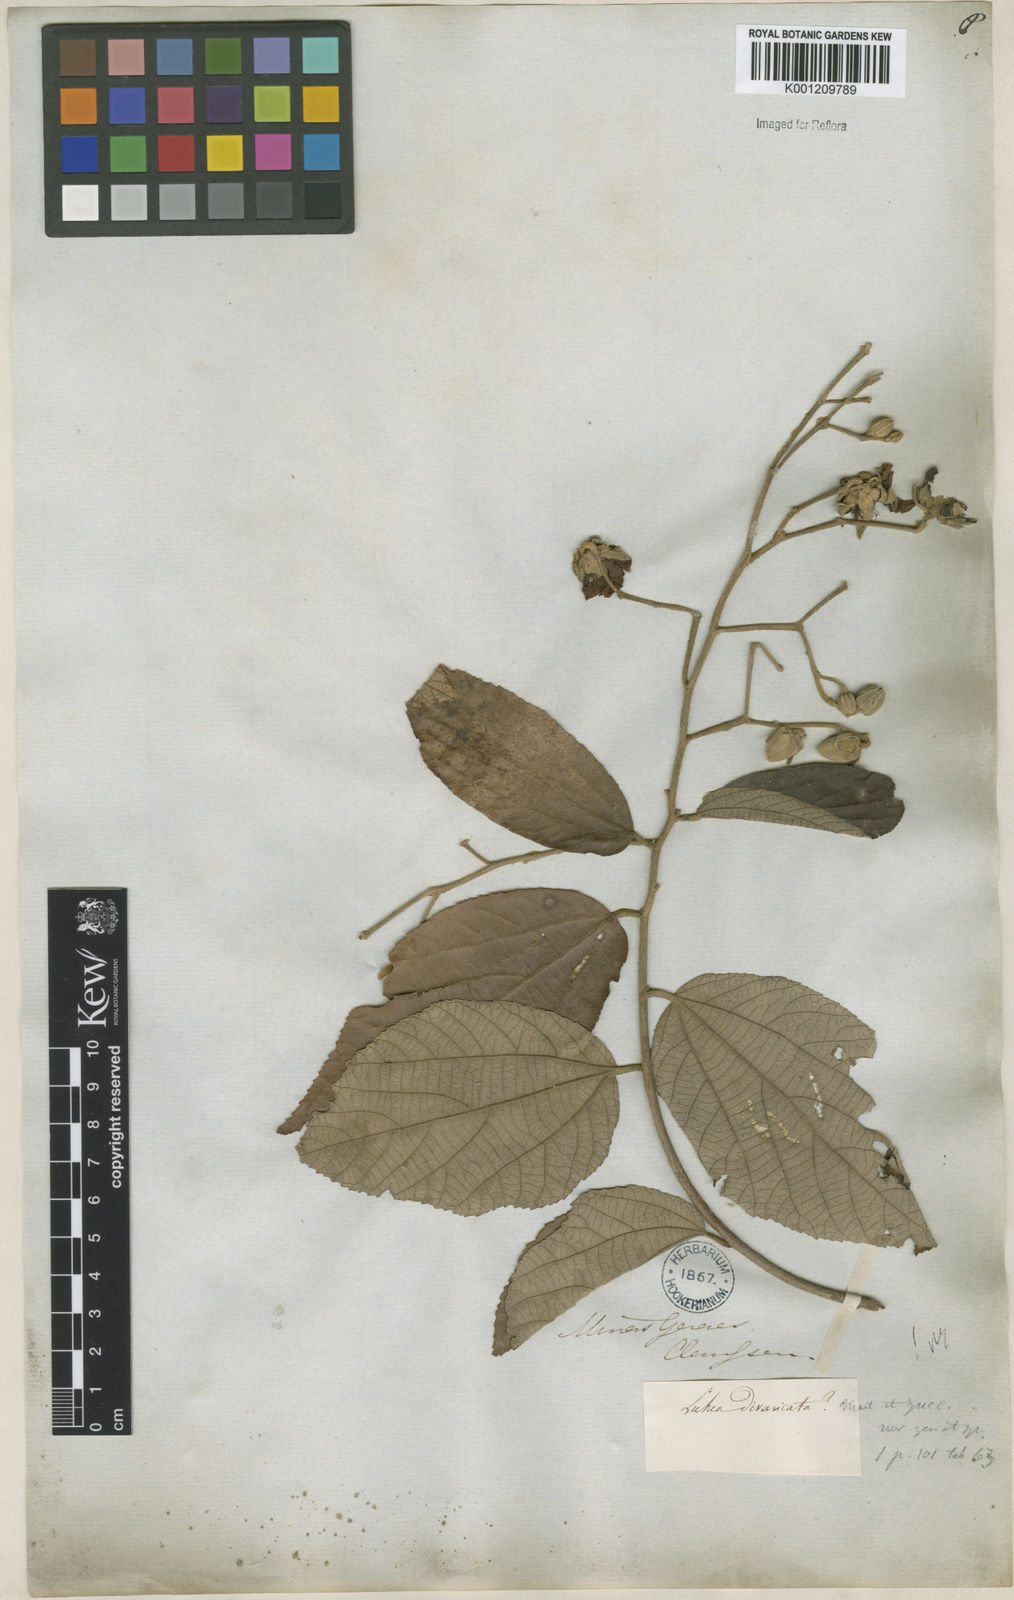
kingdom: Plantae
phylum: Tracheophyta
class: Magnoliopsida
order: Malvales
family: Malvaceae
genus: Luehea
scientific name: Luehea divaricata
